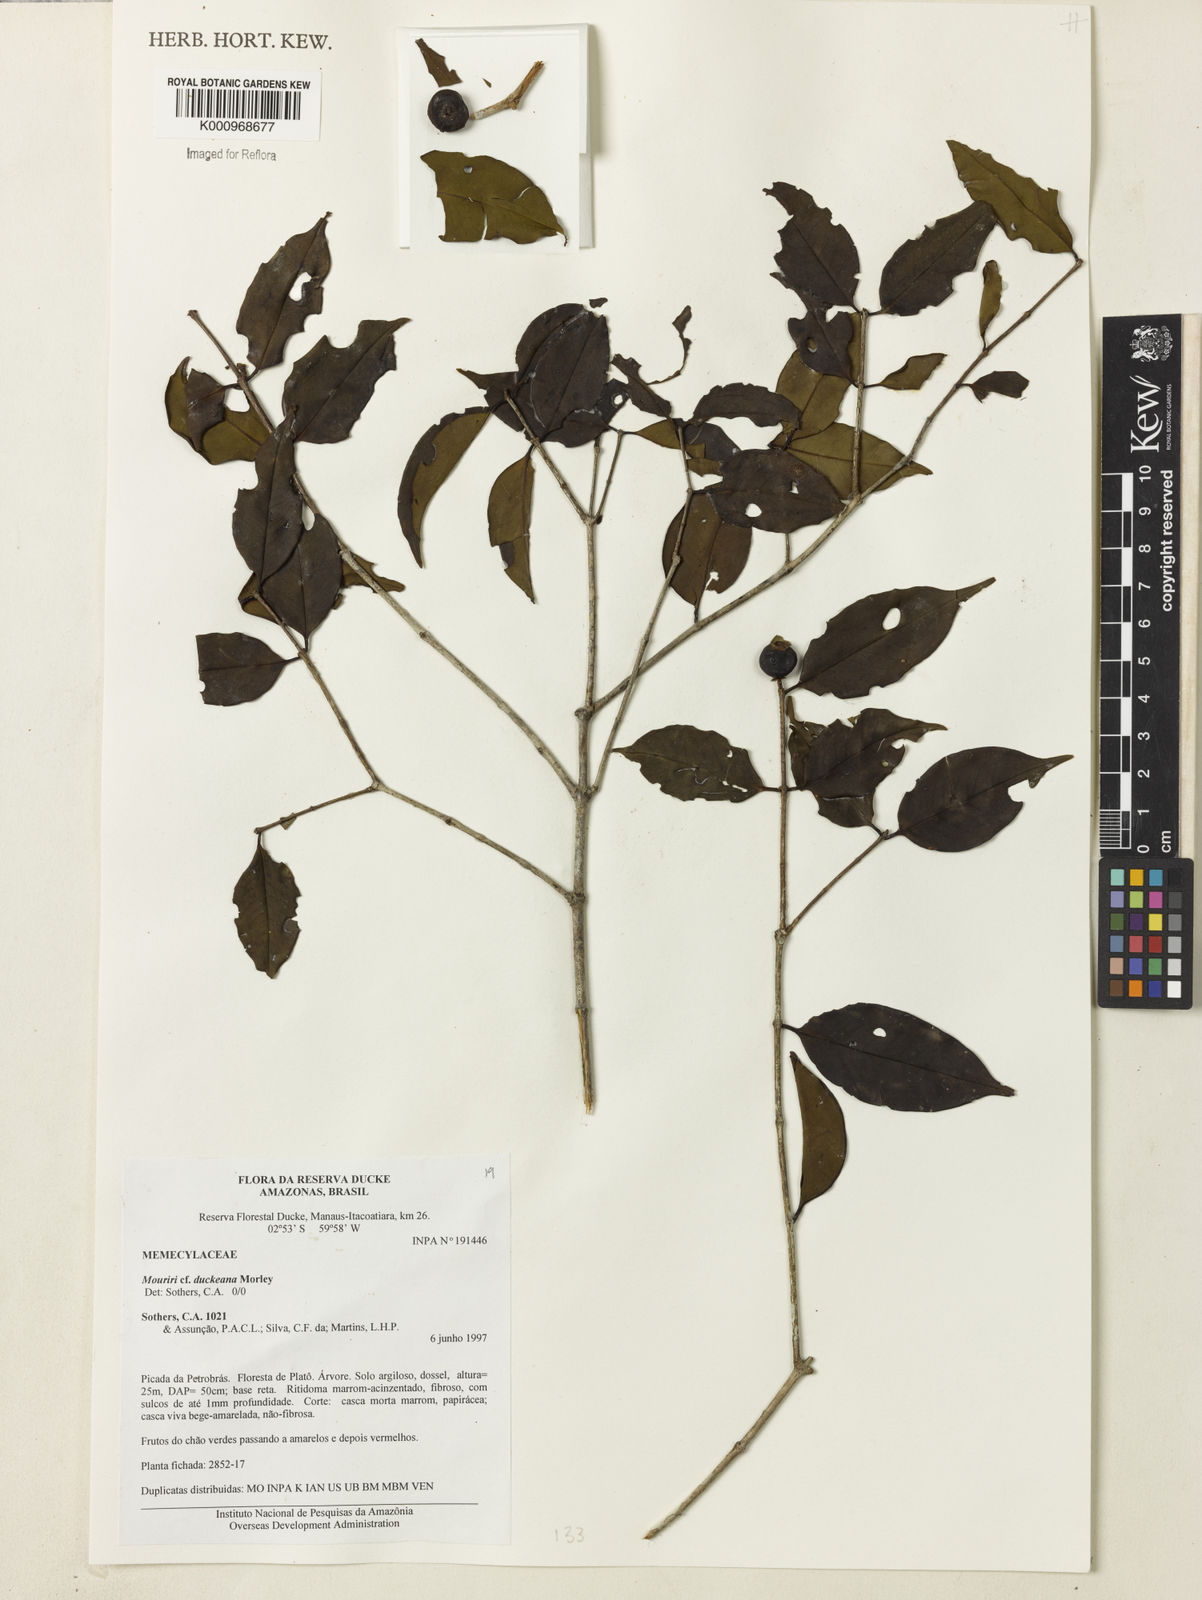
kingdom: Plantae
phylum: Tracheophyta
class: Magnoliopsida
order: Myrtales
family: Melastomataceae
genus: Mouriri
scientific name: Mouriri duckeana
